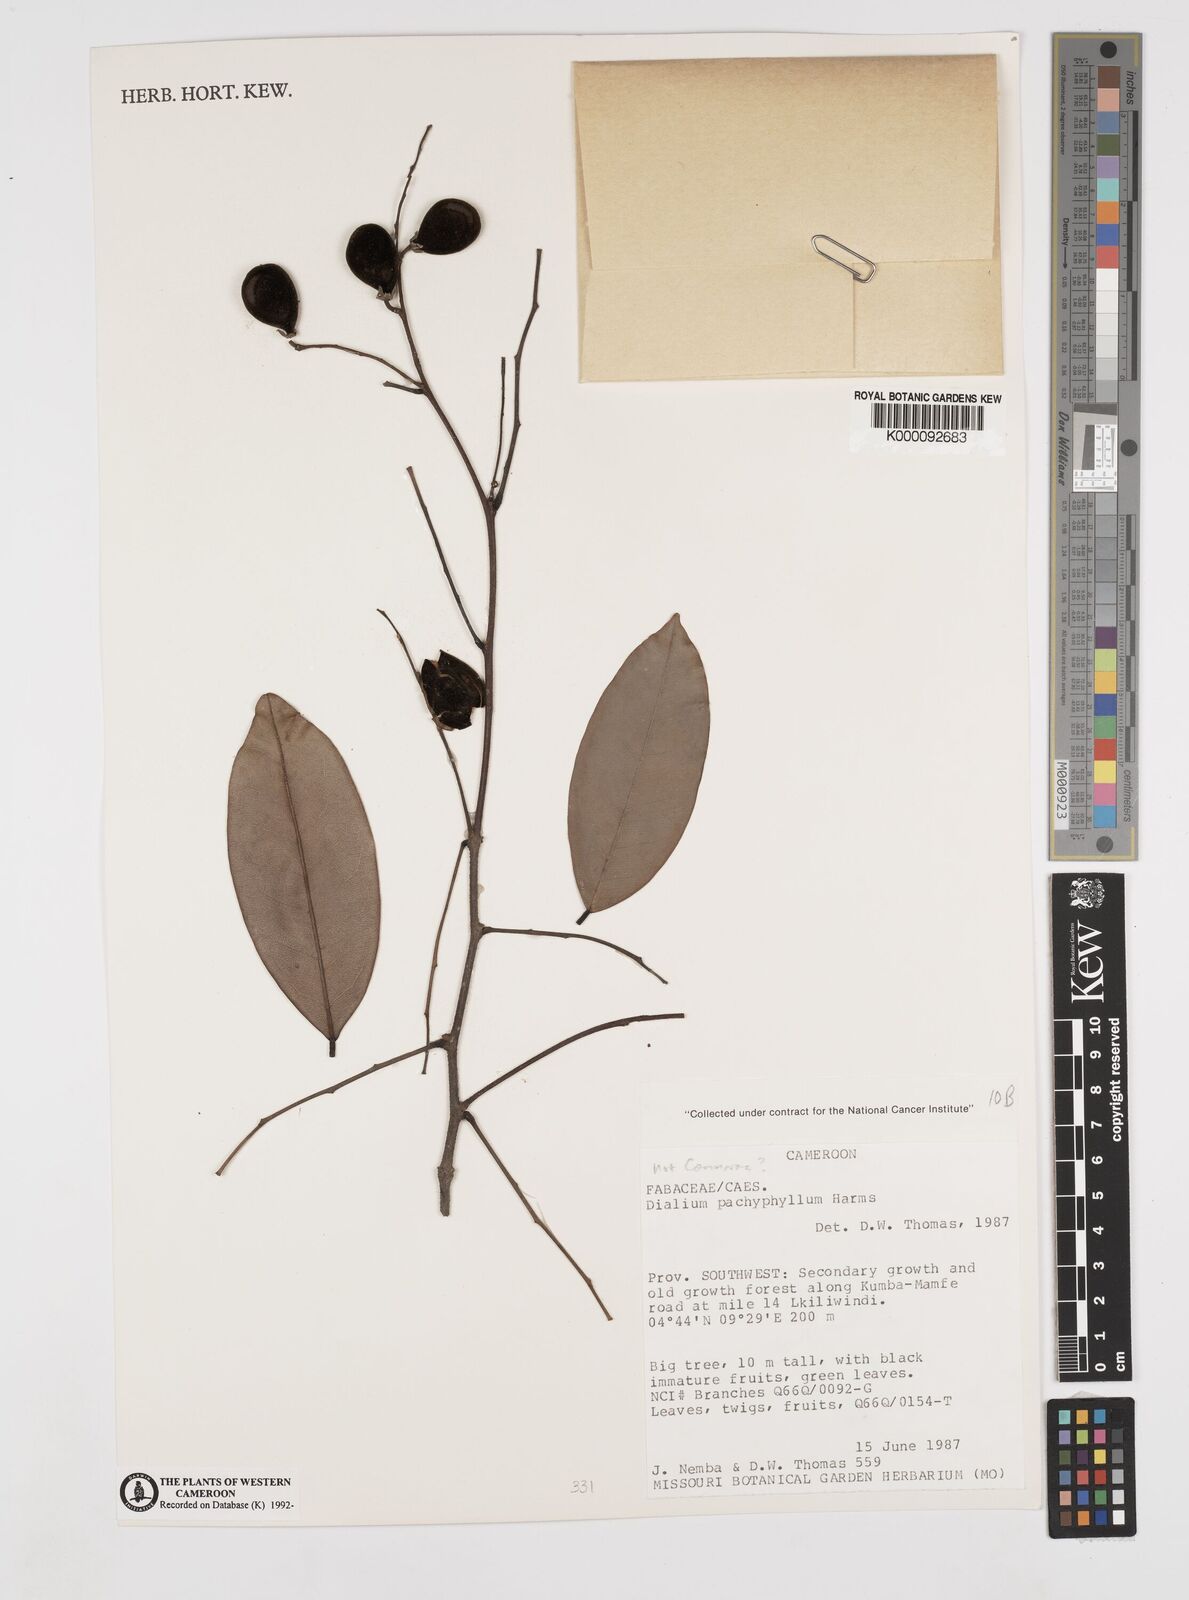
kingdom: Plantae
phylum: Tracheophyta
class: Magnoliopsida
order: Fabales
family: Fabaceae
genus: Dialium
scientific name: Dialium pachyphyllum
